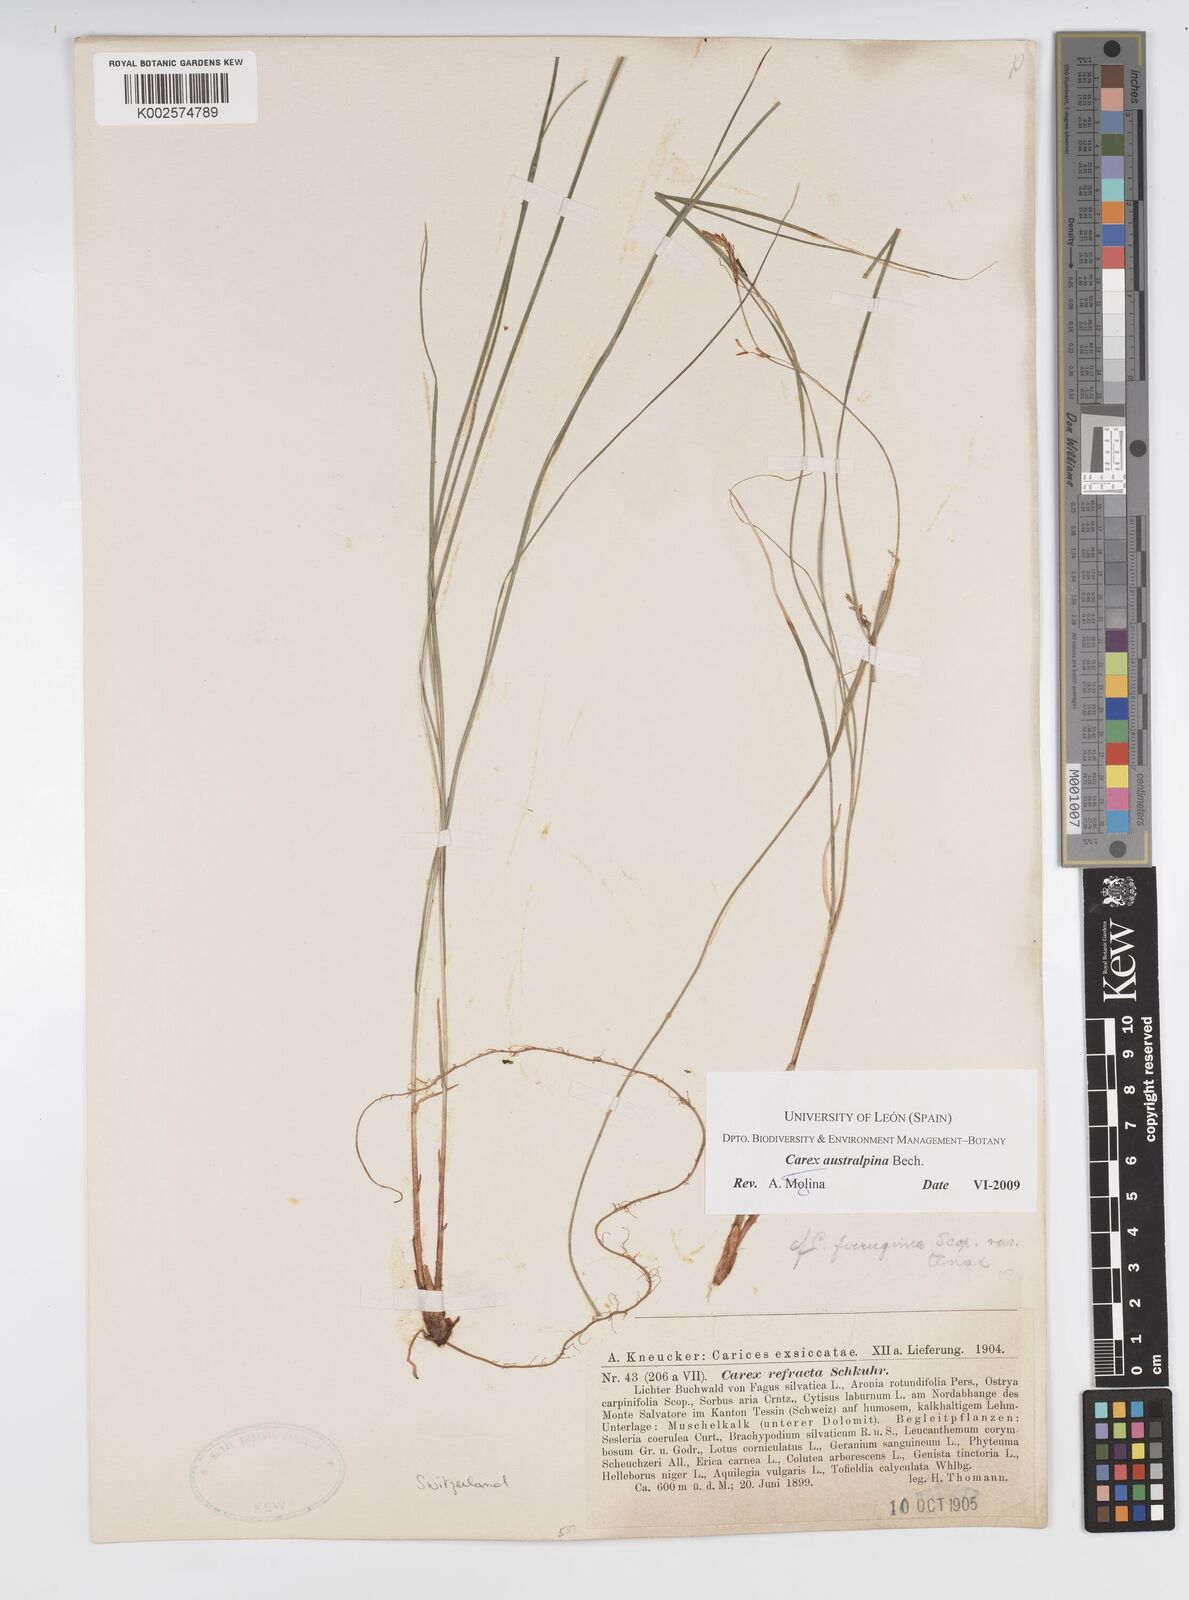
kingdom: Plantae
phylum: Tracheophyta
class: Liliopsida
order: Poales
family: Cyperaceae
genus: Carex
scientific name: Carex austroalpina
